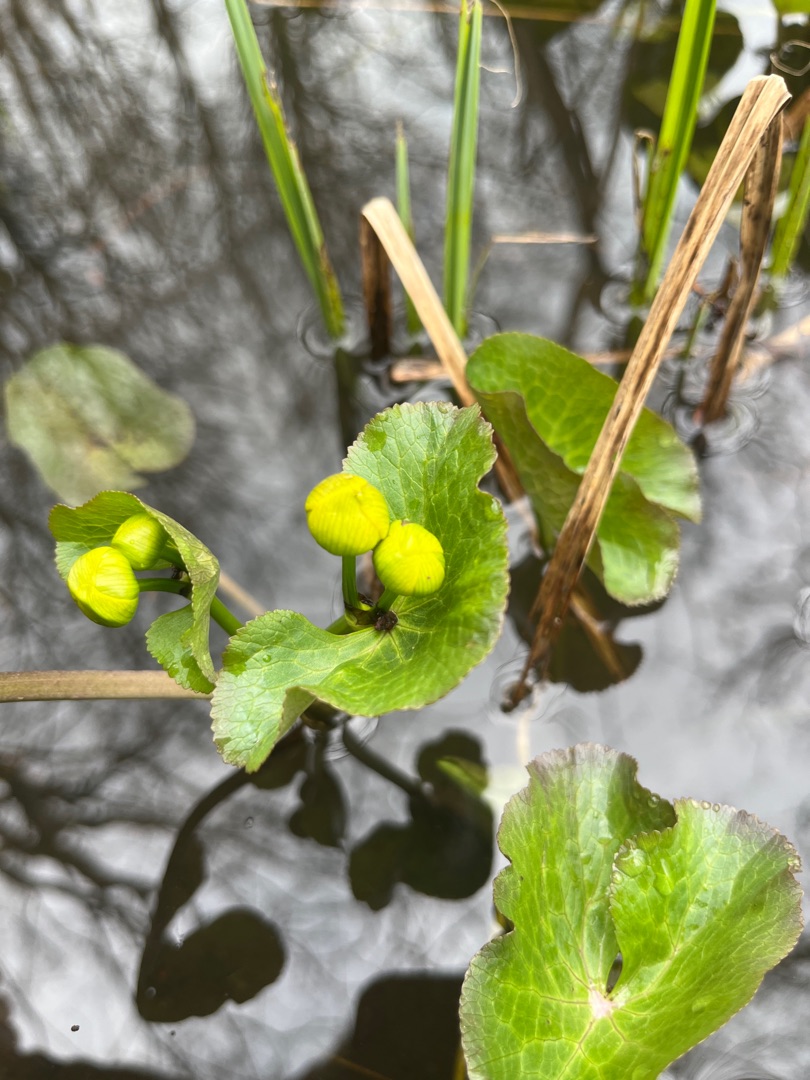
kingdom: Plantae
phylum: Tracheophyta
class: Magnoliopsida
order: Ranunculales
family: Ranunculaceae
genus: Caltha
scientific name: Caltha palustris
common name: Eng-kabbeleje
